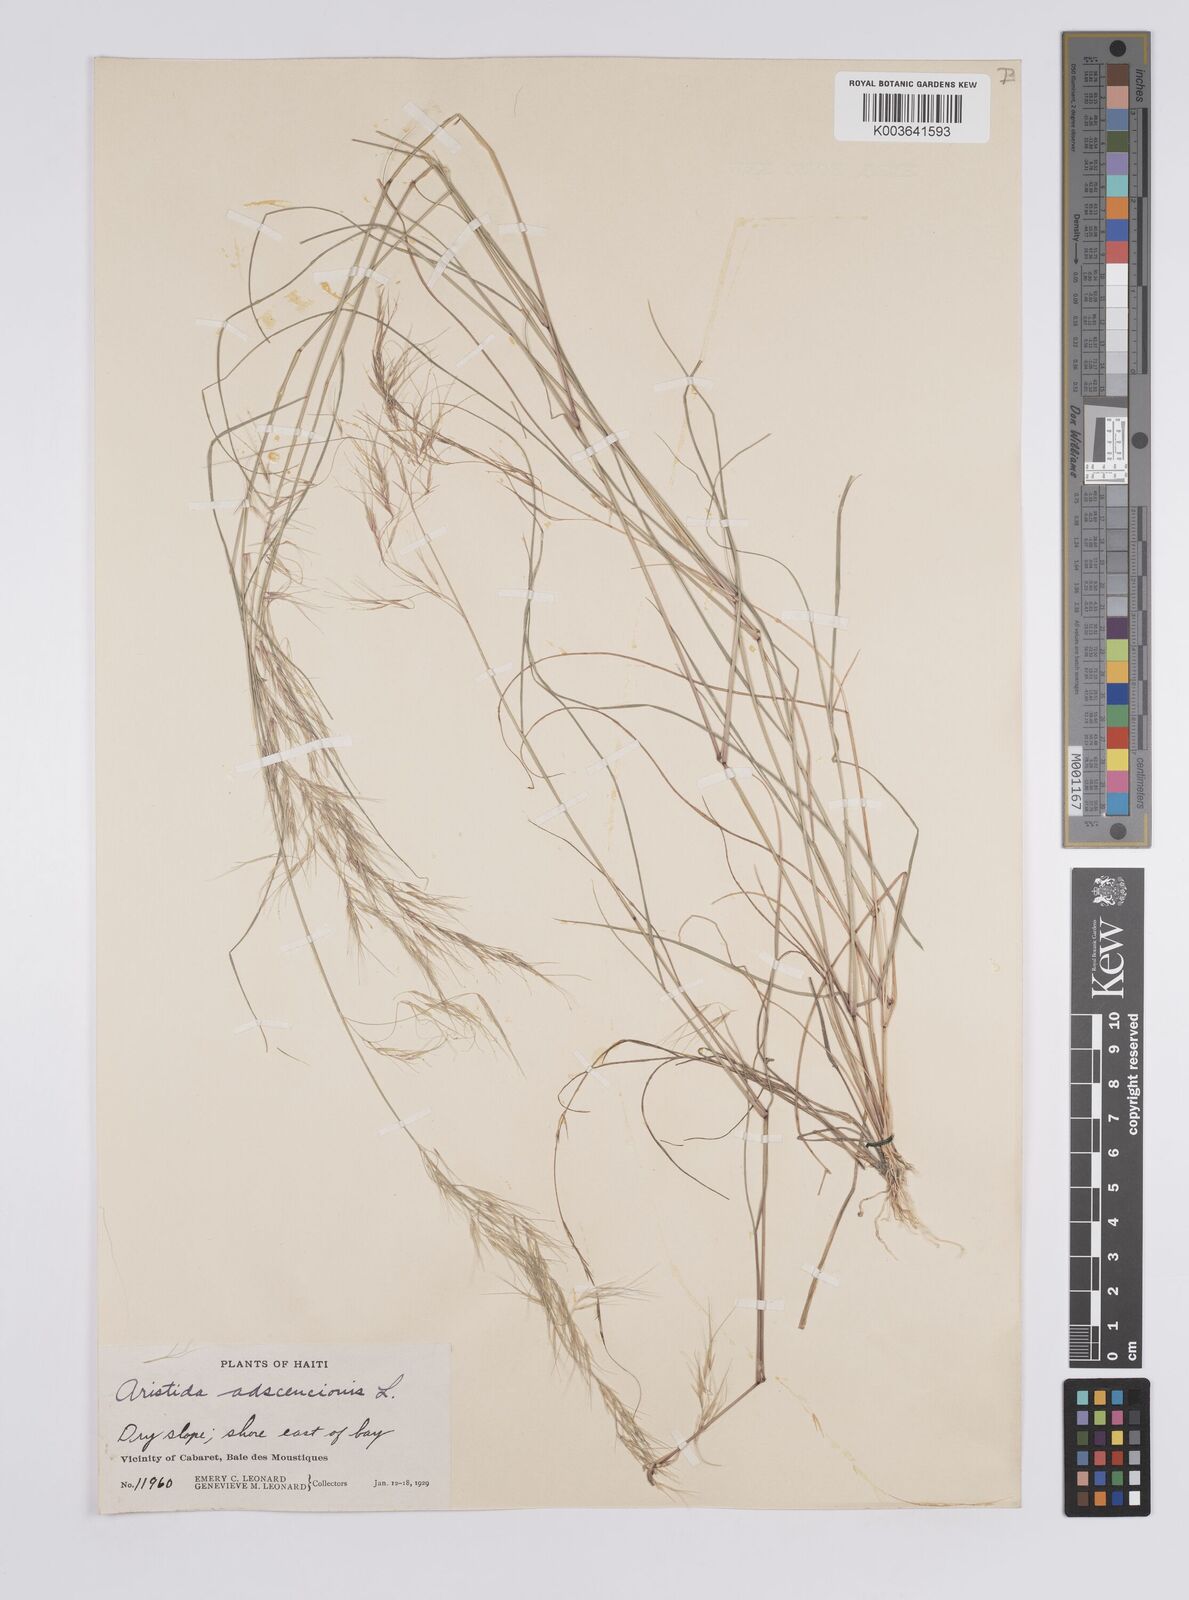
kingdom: Plantae
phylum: Tracheophyta
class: Liliopsida
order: Poales
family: Poaceae
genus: Aristida
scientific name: Aristida adscensionis
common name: Sixweeks threeawn
